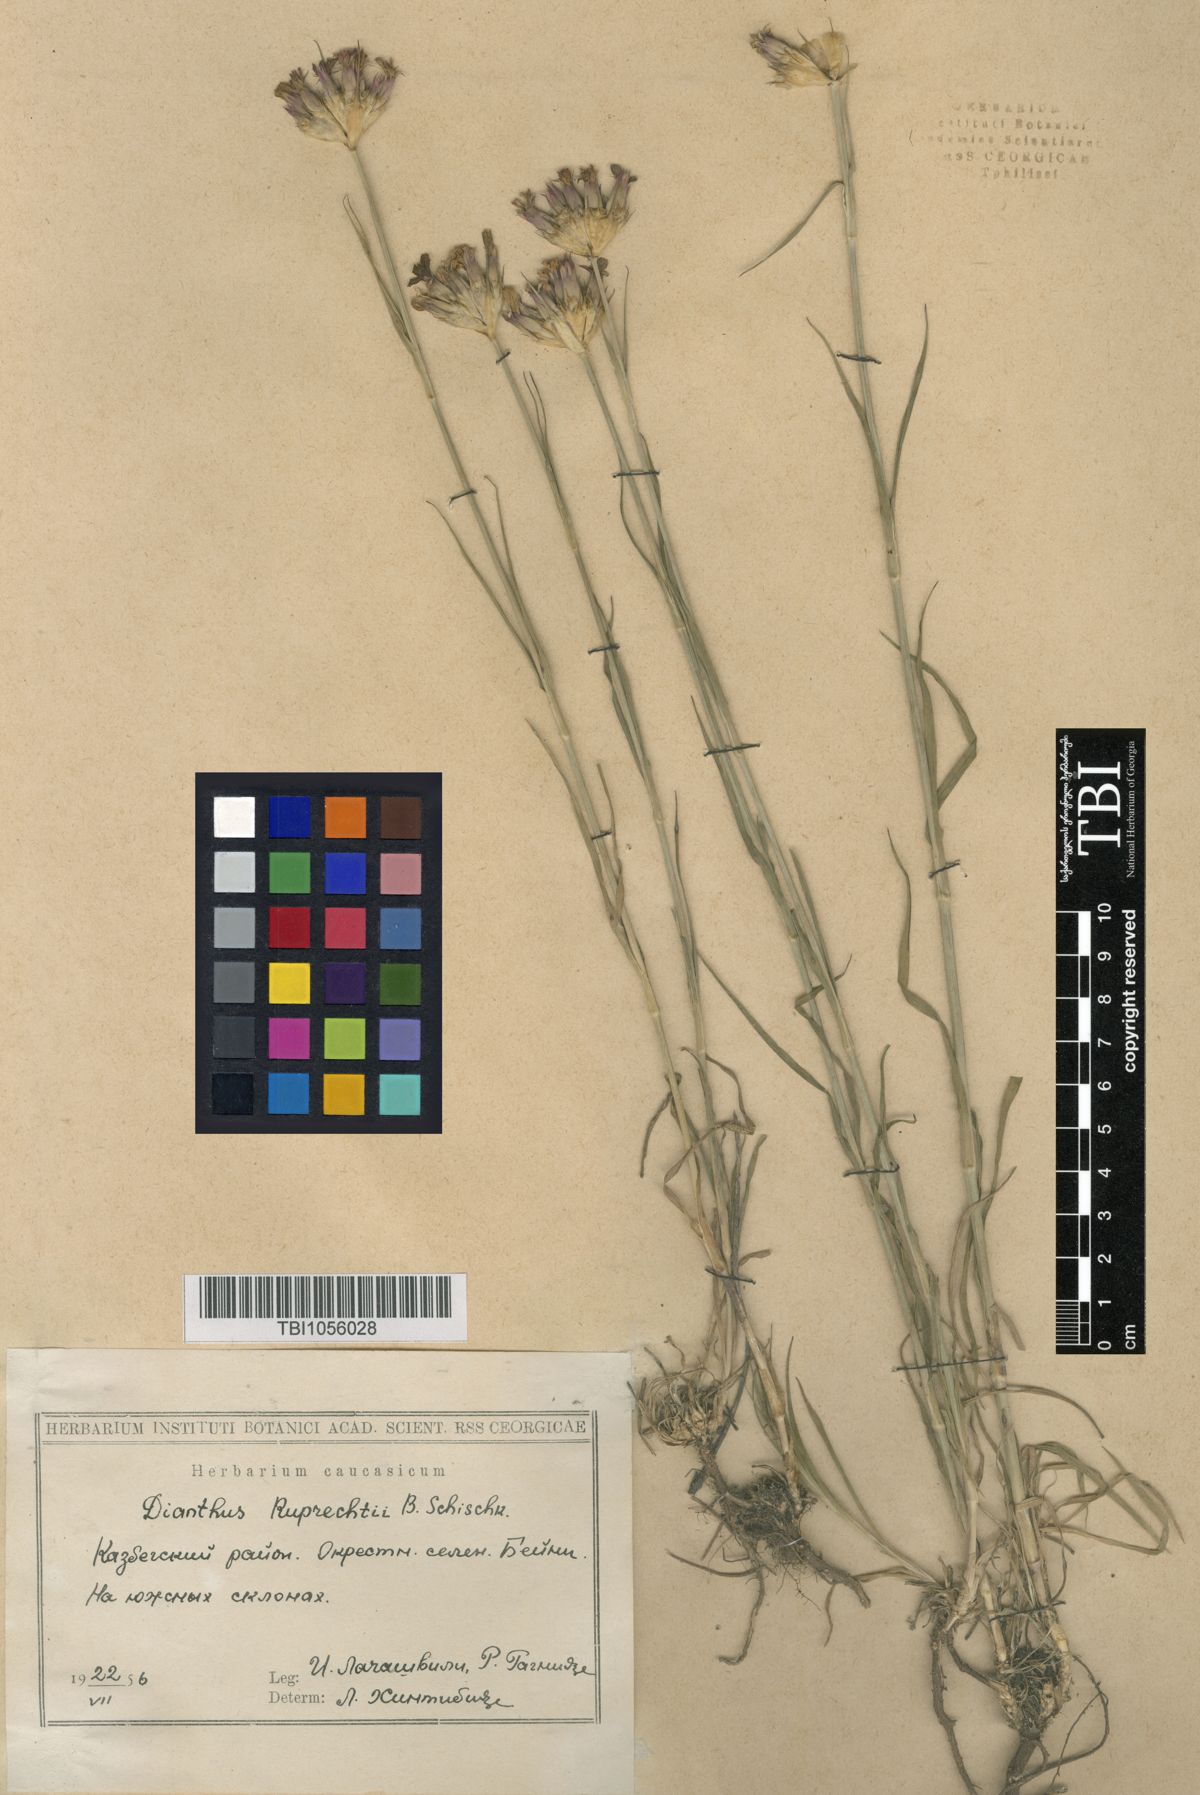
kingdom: Plantae
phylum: Tracheophyta
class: Magnoliopsida
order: Caryophyllales
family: Caryophyllaceae
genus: Dianthus
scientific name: Dianthus ruprechtii
